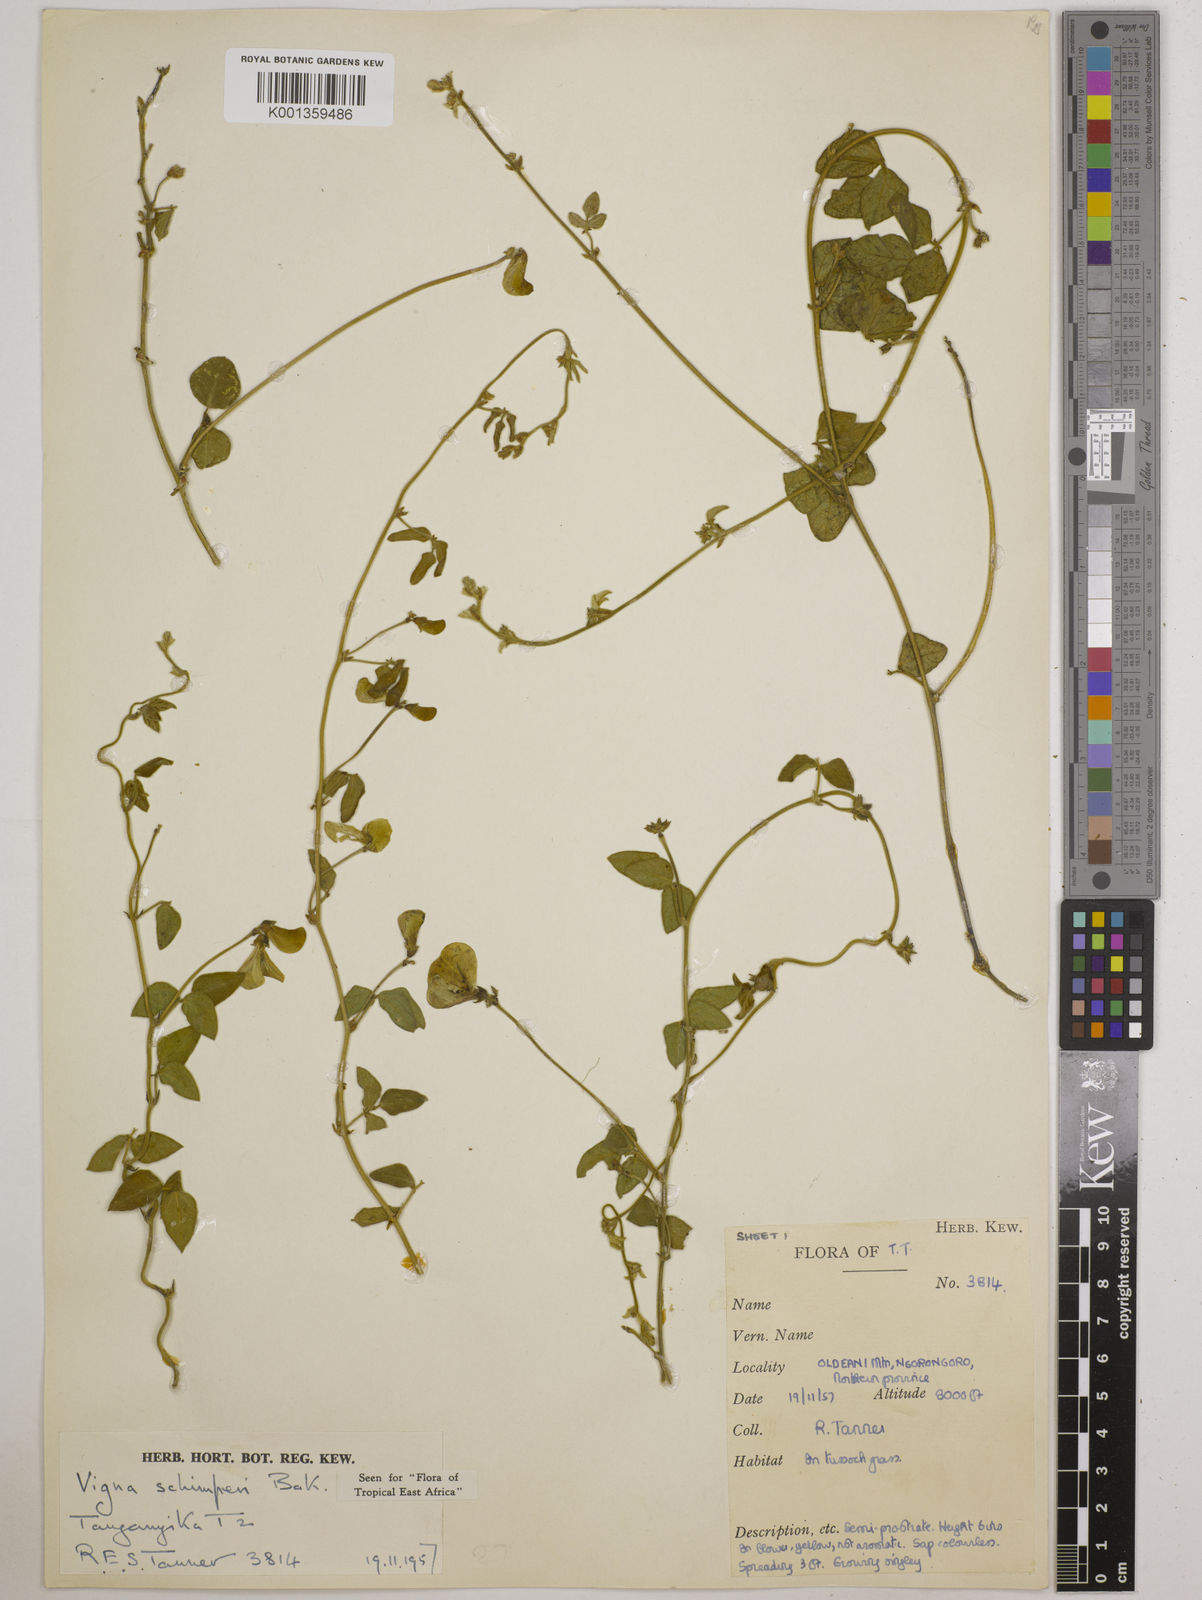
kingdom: Plantae
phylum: Tracheophyta
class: Magnoliopsida
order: Fabales
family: Fabaceae
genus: Vigna
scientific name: Vigna schimperi
